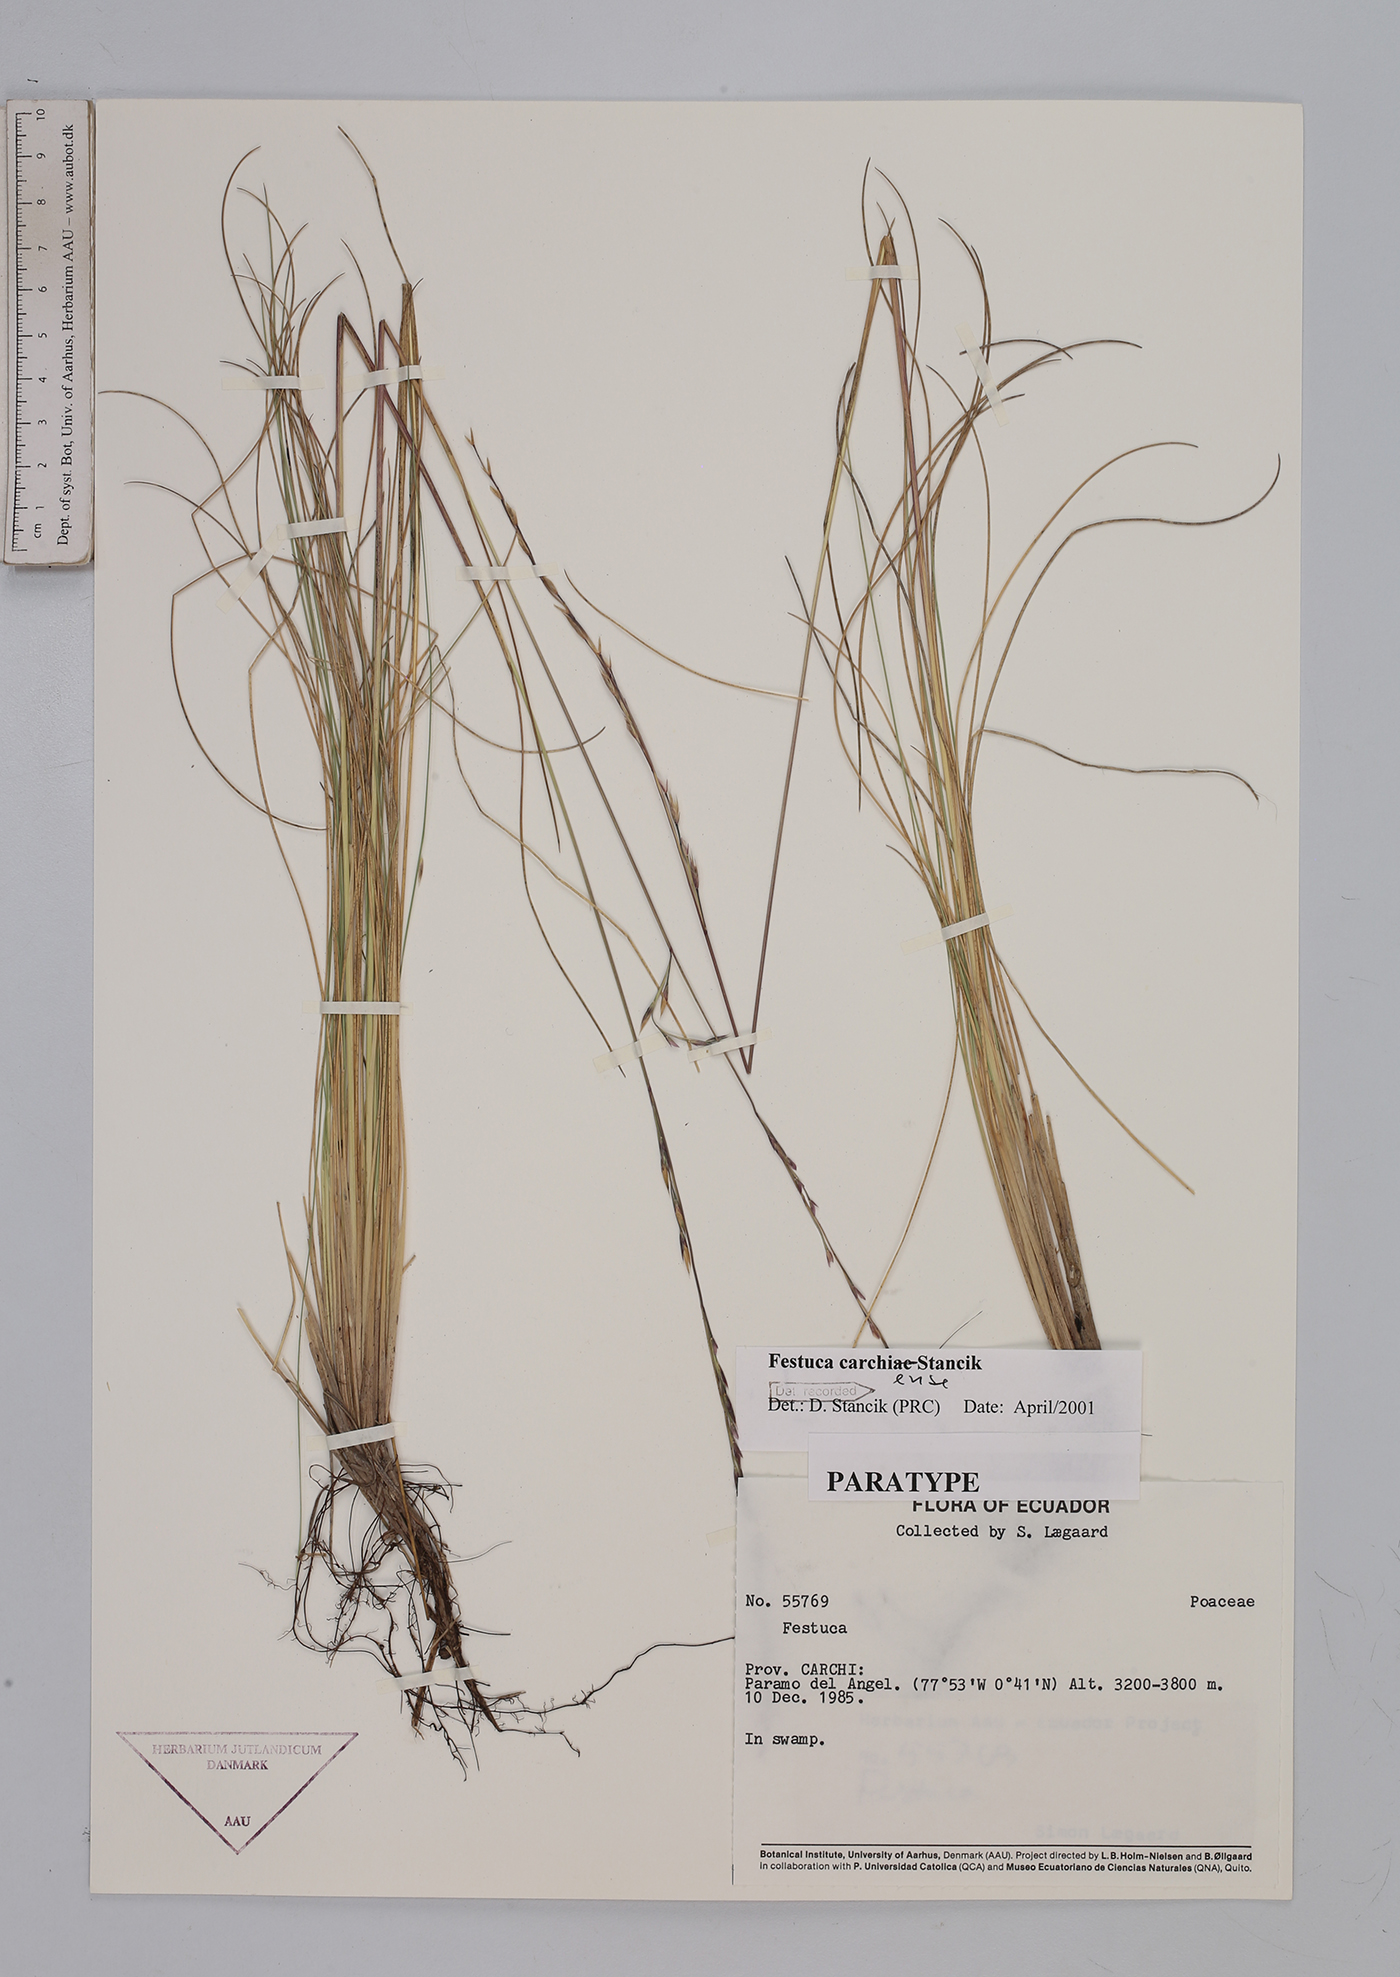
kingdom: Plantae
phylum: Tracheophyta
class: Liliopsida
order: Poales
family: Poaceae
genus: Festuca
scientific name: Festuca carchiensis
